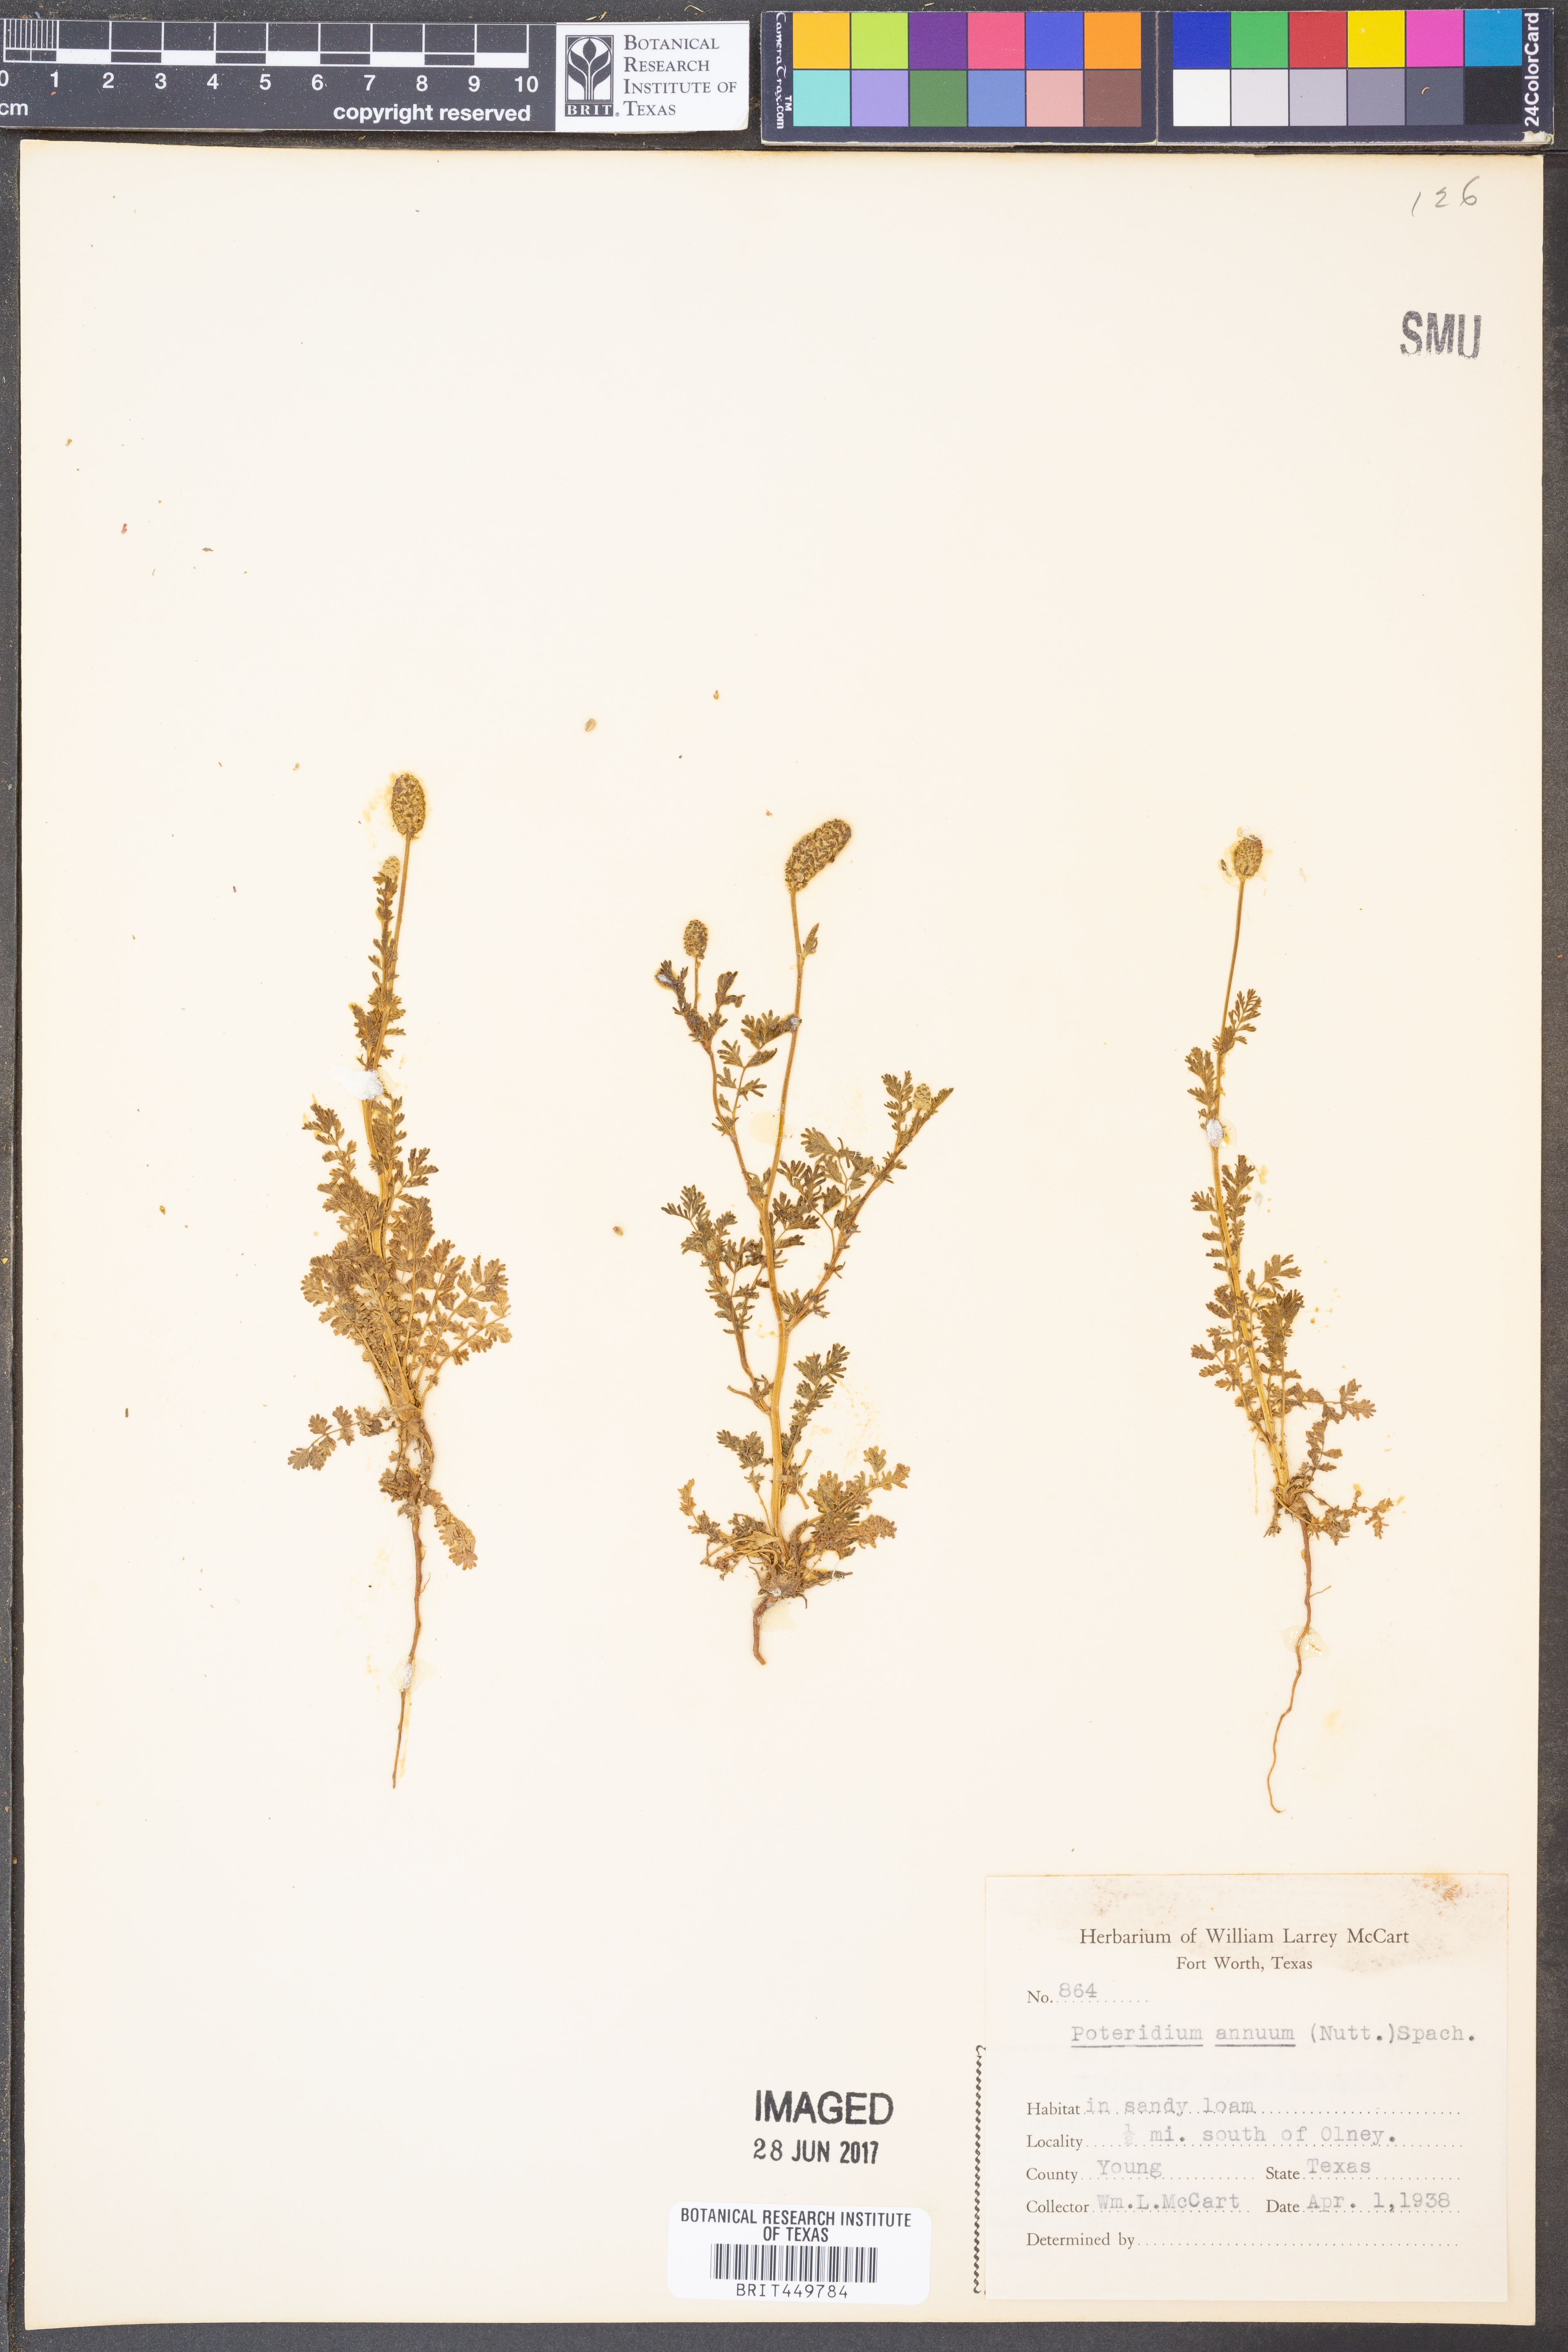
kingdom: Plantae
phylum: Tracheophyta
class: Magnoliopsida
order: Rosales
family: Rosaceae
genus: Poteridium
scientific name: Poteridium annuum
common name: Annual burnet
